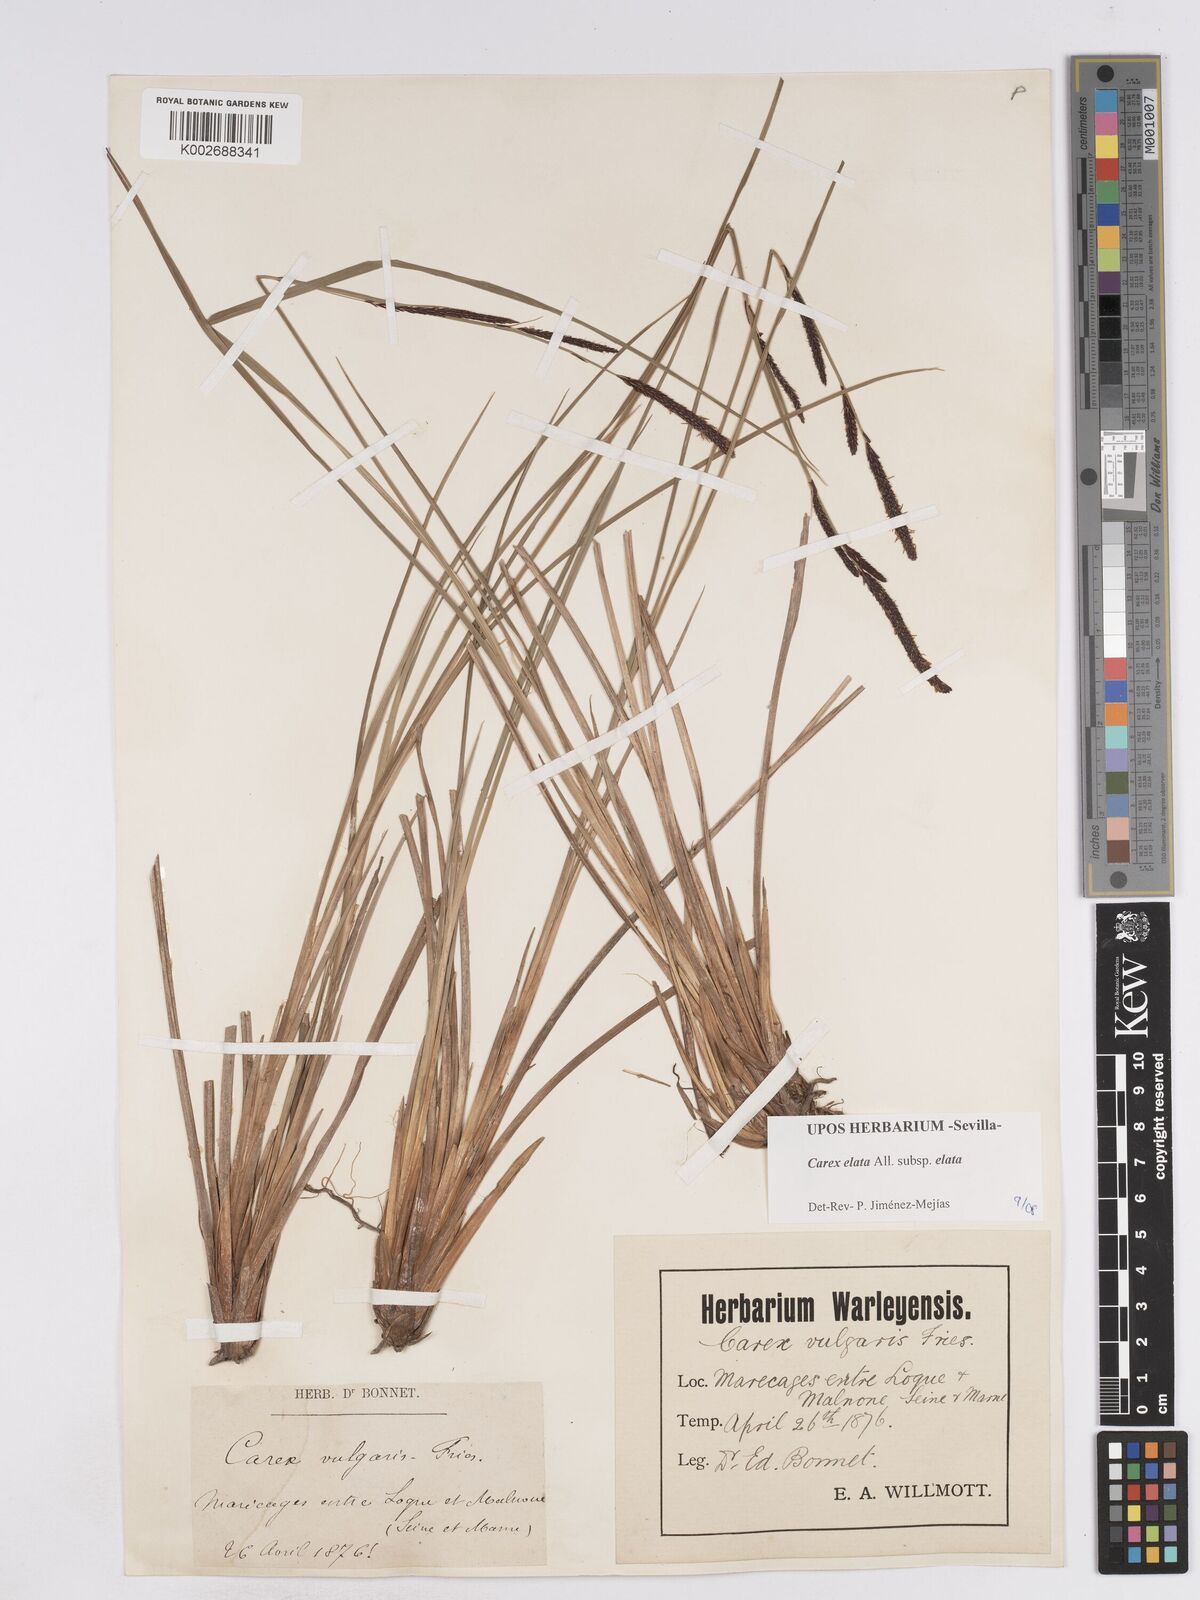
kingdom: Plantae
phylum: Tracheophyta
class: Liliopsida
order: Poales
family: Cyperaceae
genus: Carex
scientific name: Carex elata
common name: Tufted sedge
